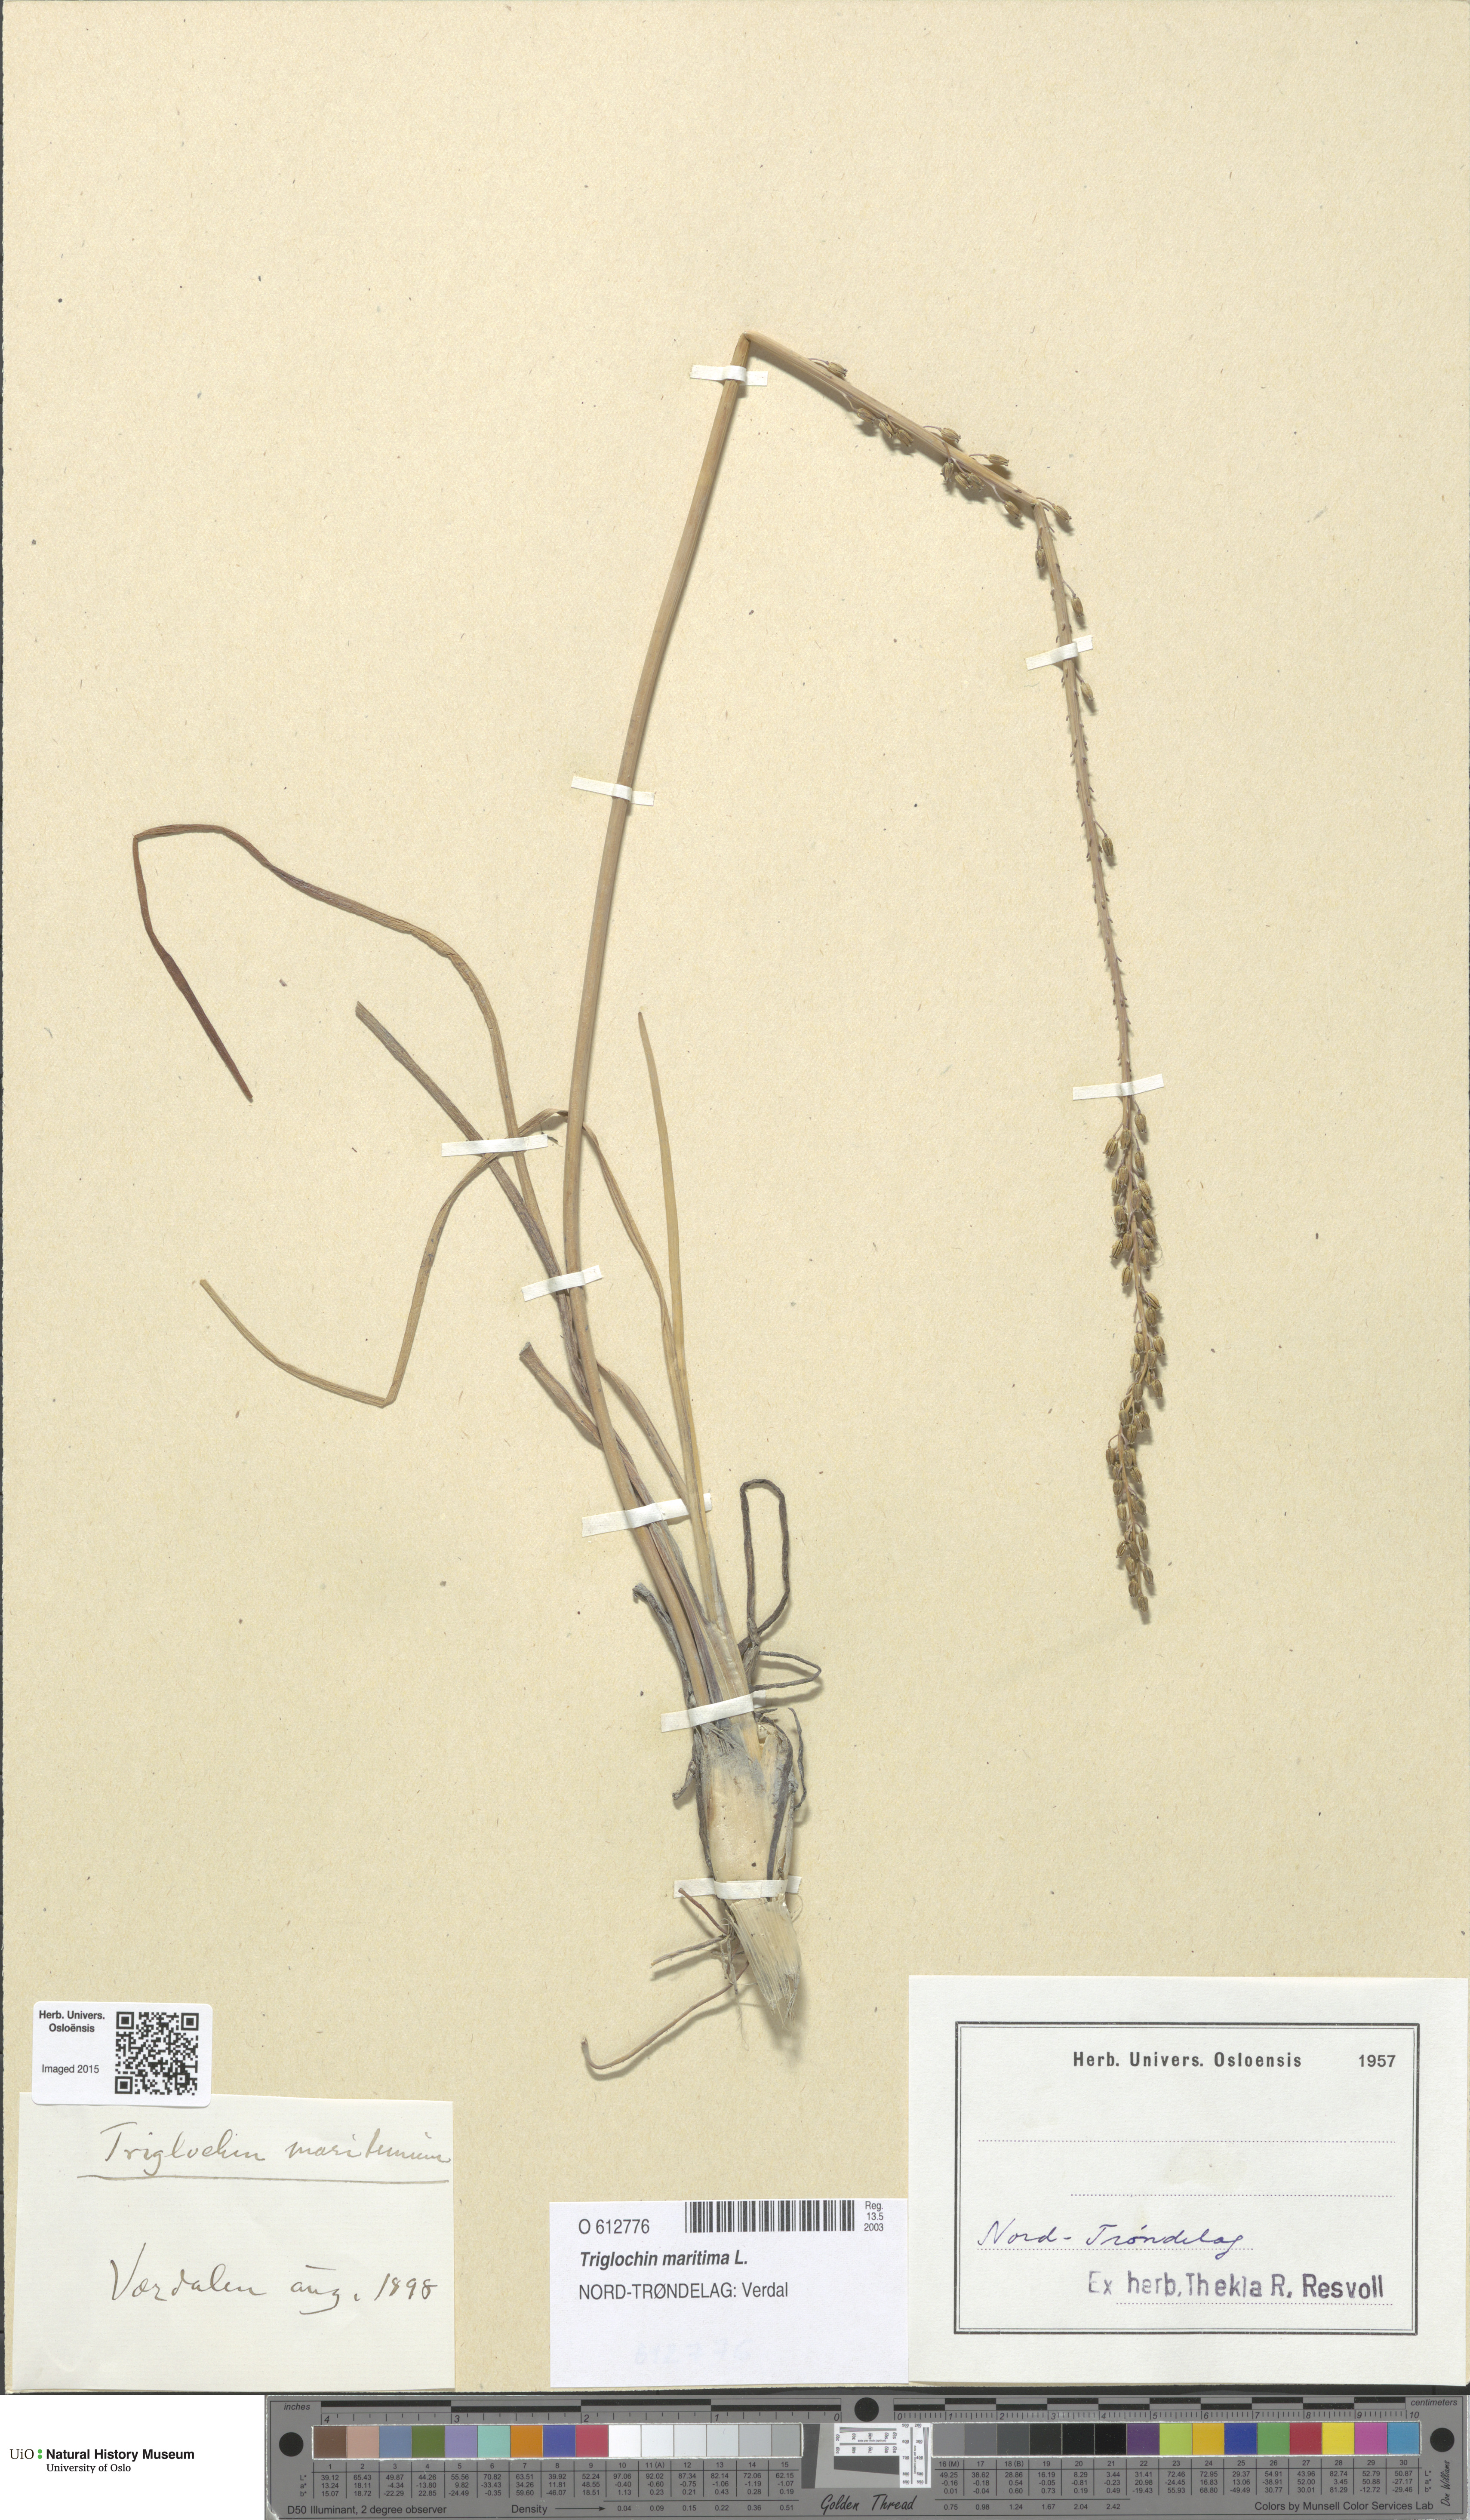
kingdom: Plantae
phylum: Tracheophyta
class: Liliopsida
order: Alismatales
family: Juncaginaceae
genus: Triglochin
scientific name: Triglochin maritima
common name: Sea arrowgrass
